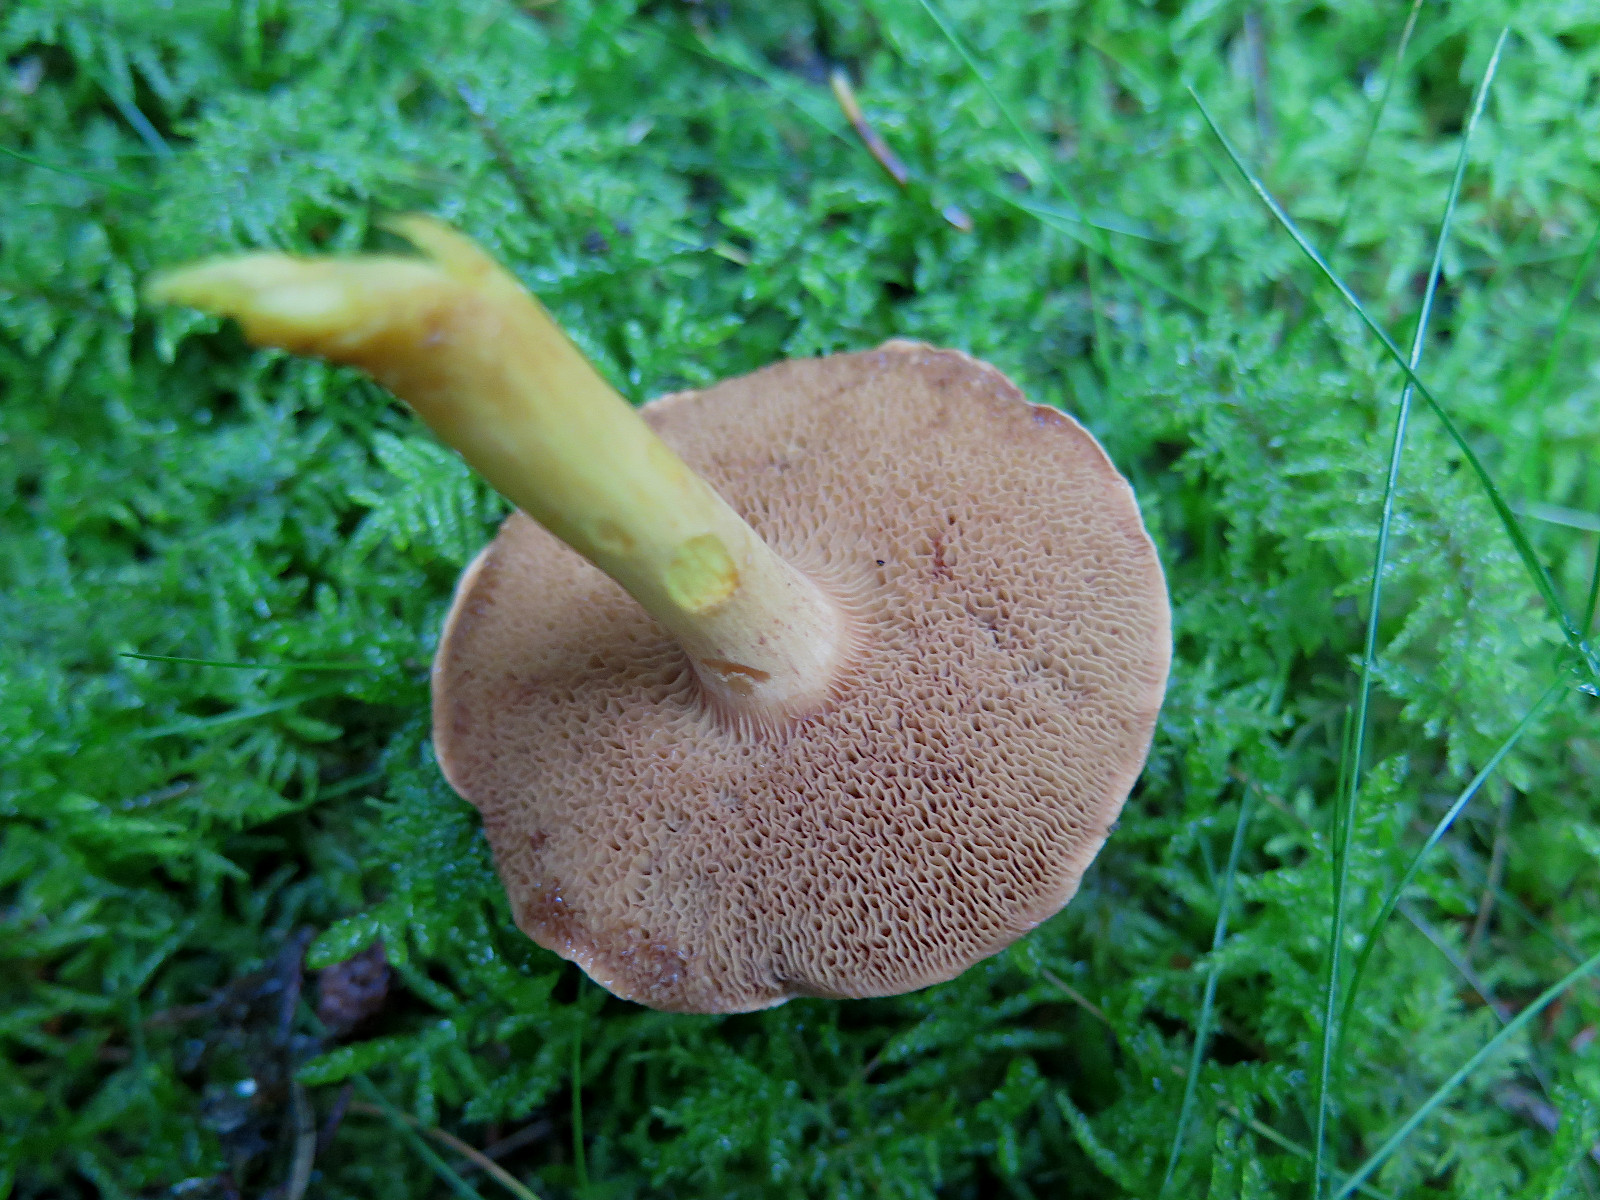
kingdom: Fungi
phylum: Basidiomycota
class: Agaricomycetes
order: Boletales
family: Boletaceae
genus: Chalciporus
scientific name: Chalciporus piperatus
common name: peberrørhat
